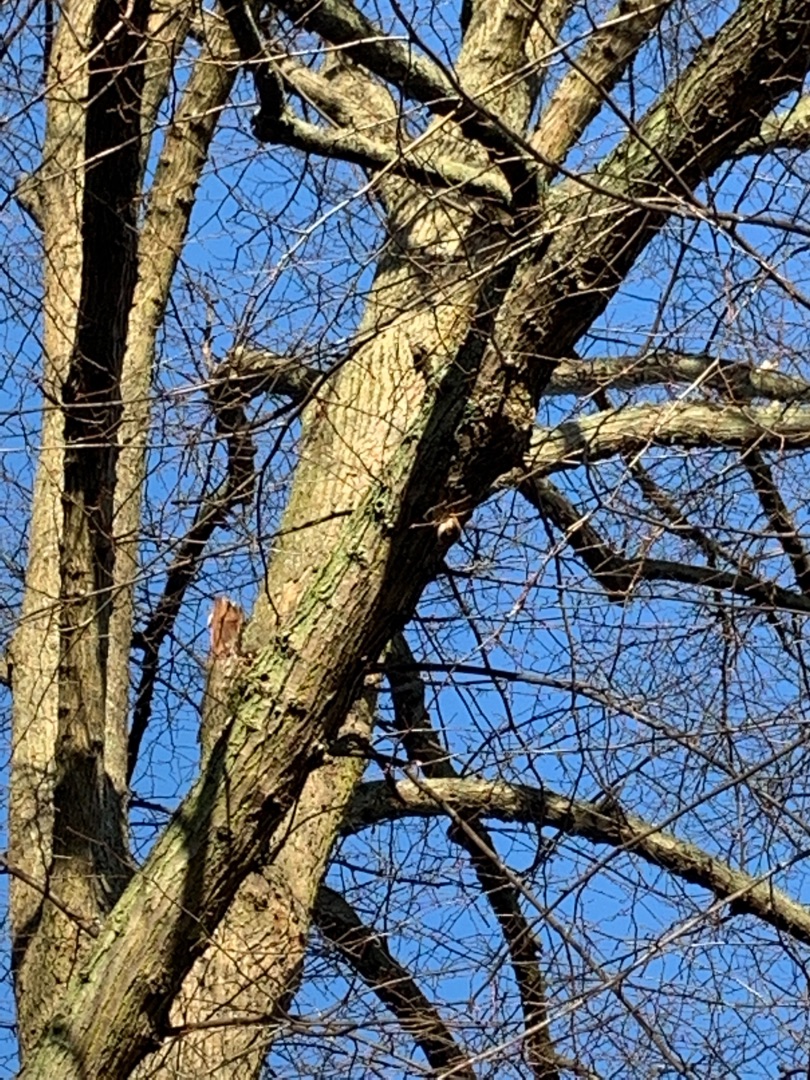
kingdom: Animalia
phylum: Chordata
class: Aves
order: Passeriformes
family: Certhiidae
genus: Certhia
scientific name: Certhia
